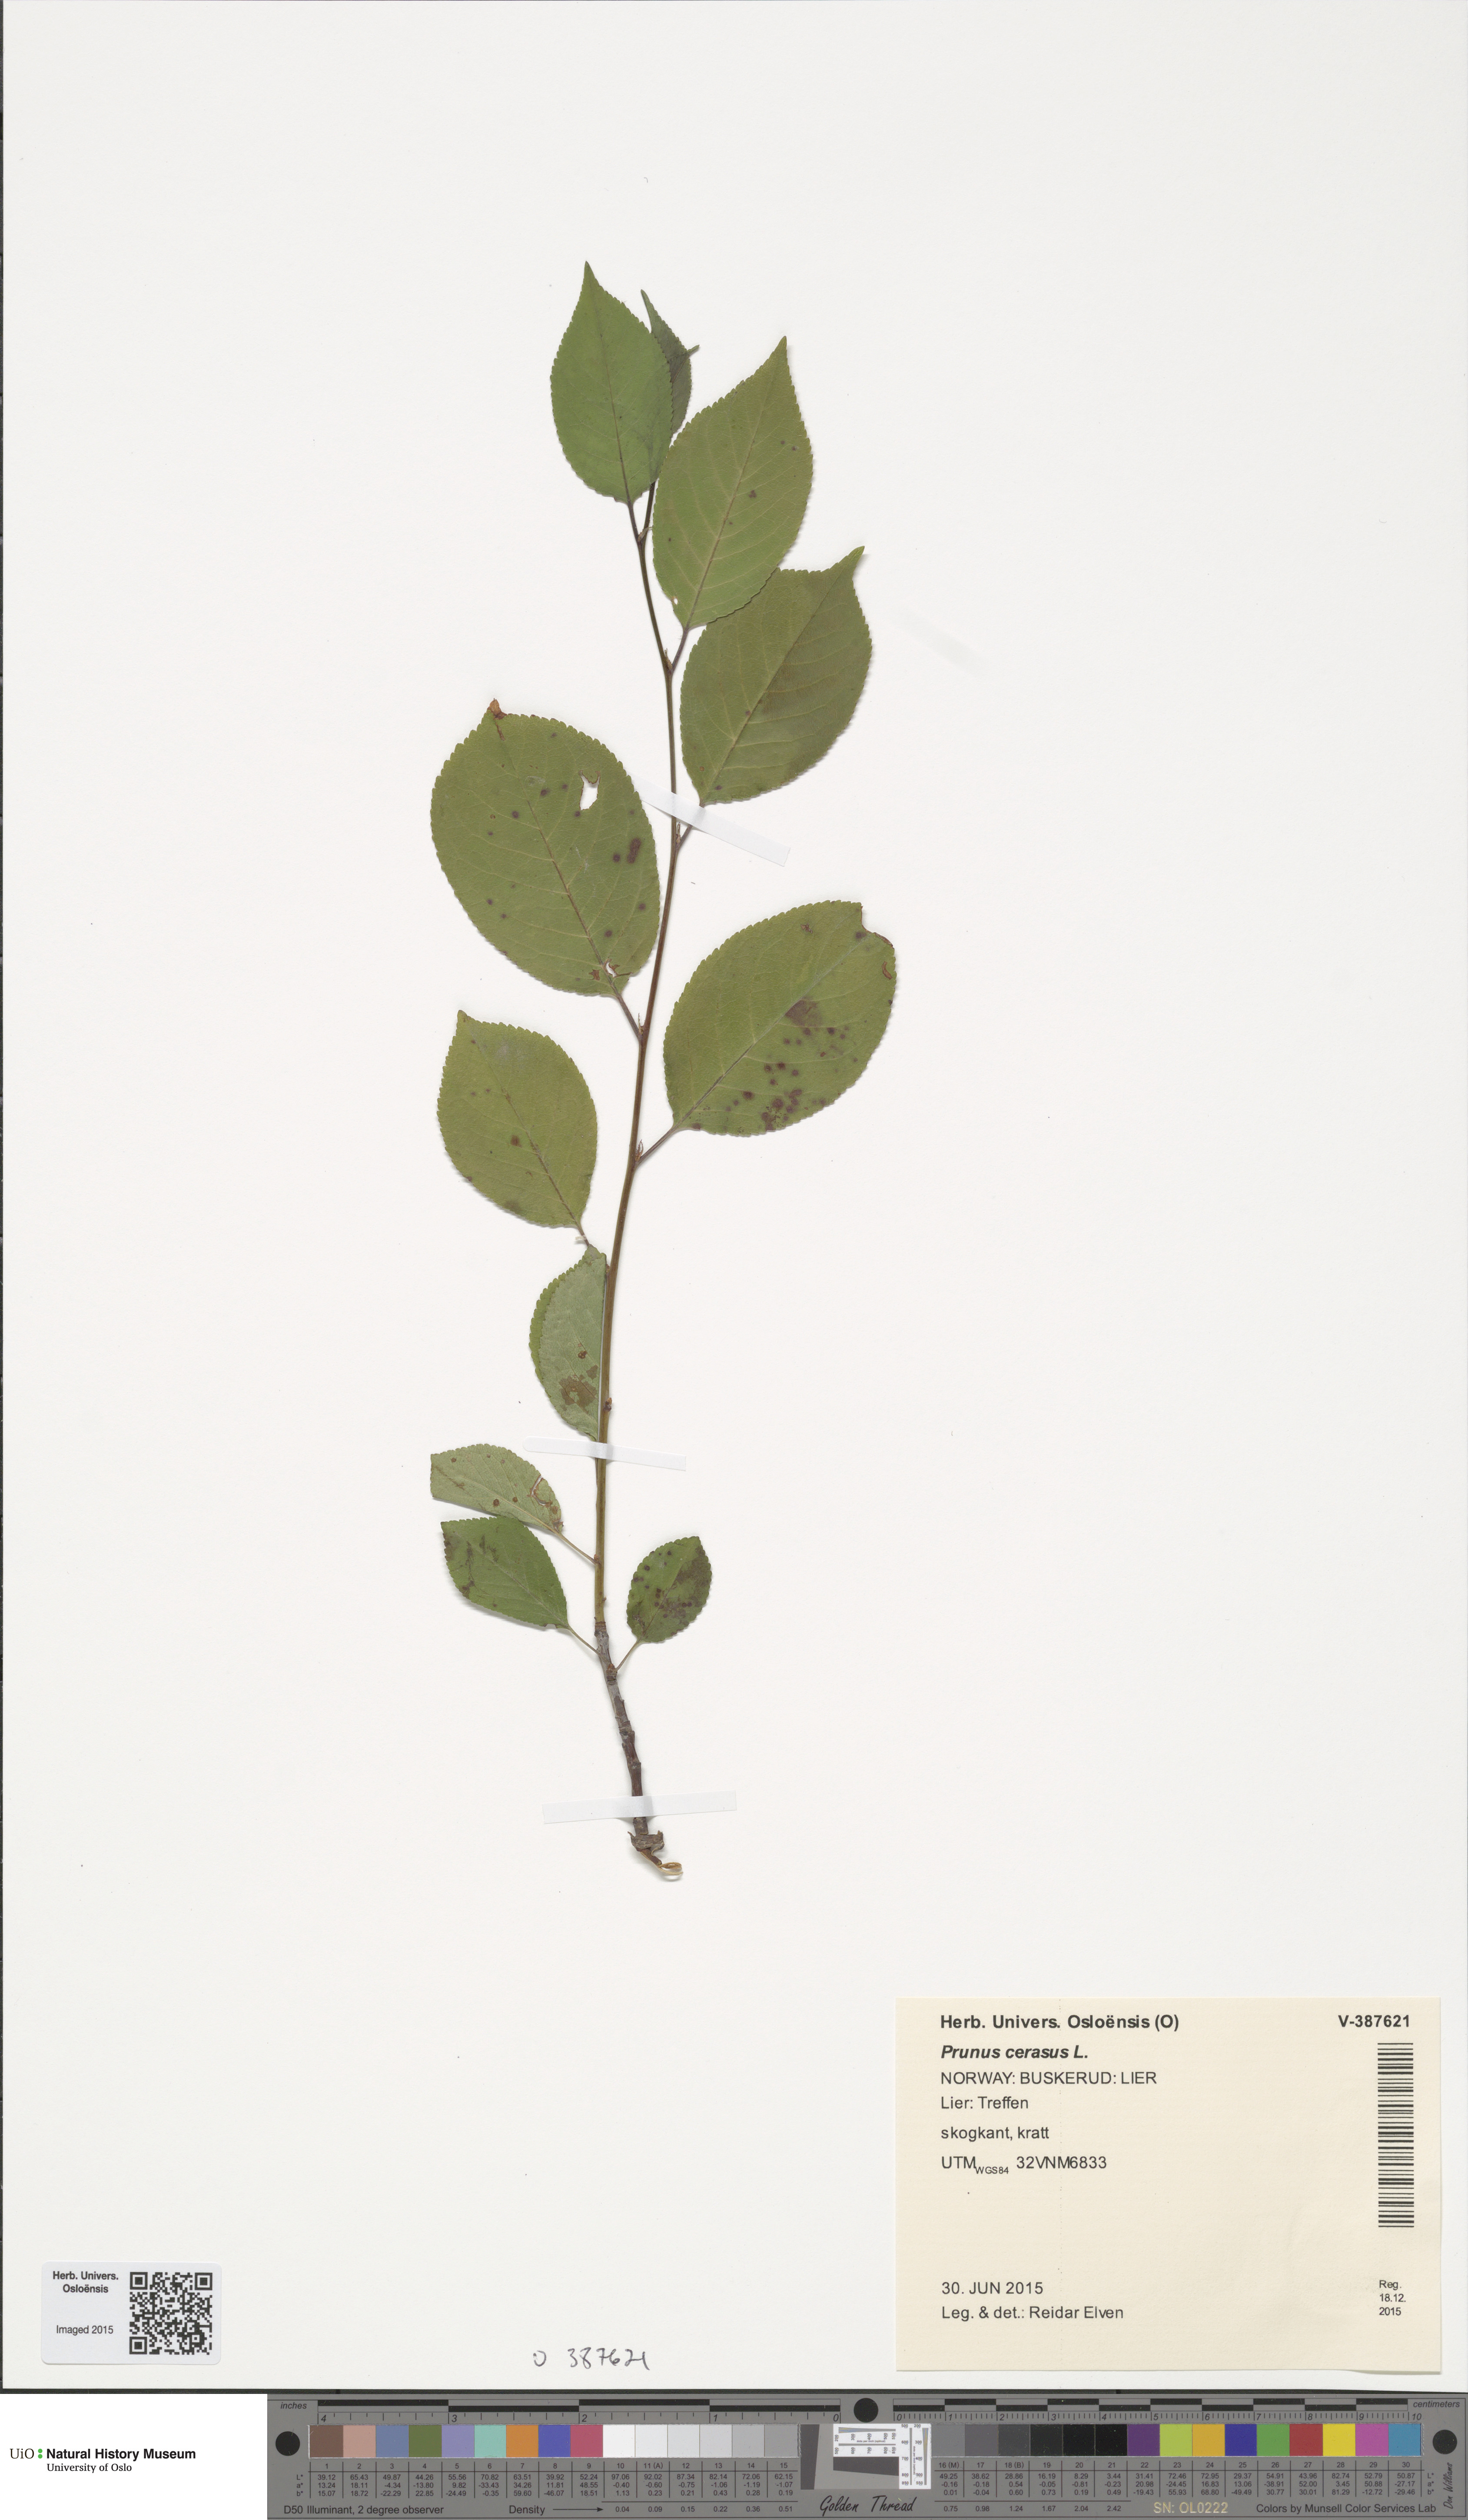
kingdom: Plantae
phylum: Tracheophyta
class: Magnoliopsida
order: Rosales
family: Rosaceae
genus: Prunus
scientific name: Prunus cerasus
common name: Morello cherry
